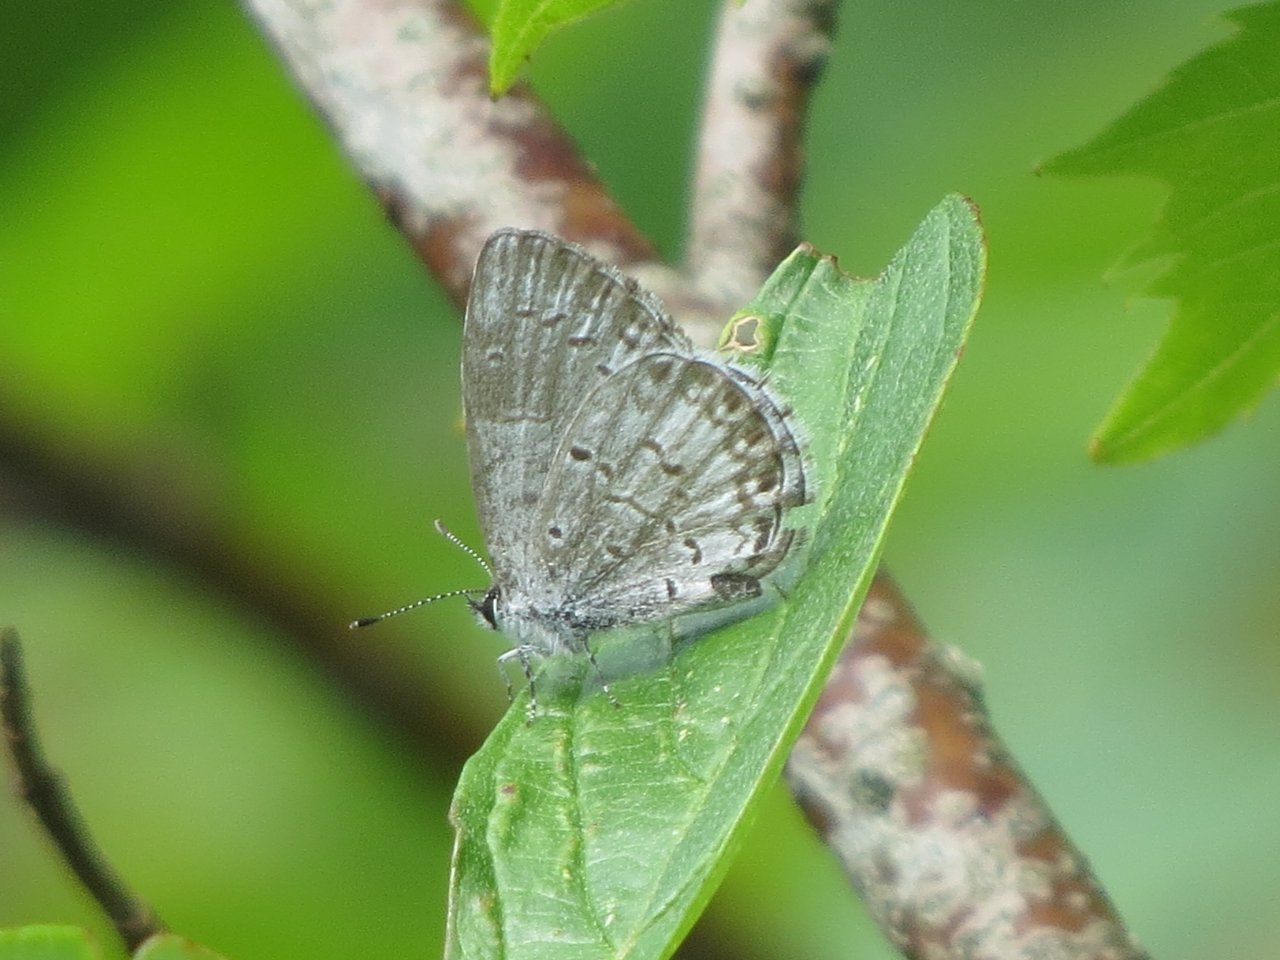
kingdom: Animalia
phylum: Arthropoda
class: Insecta
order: Lepidoptera
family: Lycaenidae
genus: Celastrina
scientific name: Celastrina lucia
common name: Northern Spring Azure
